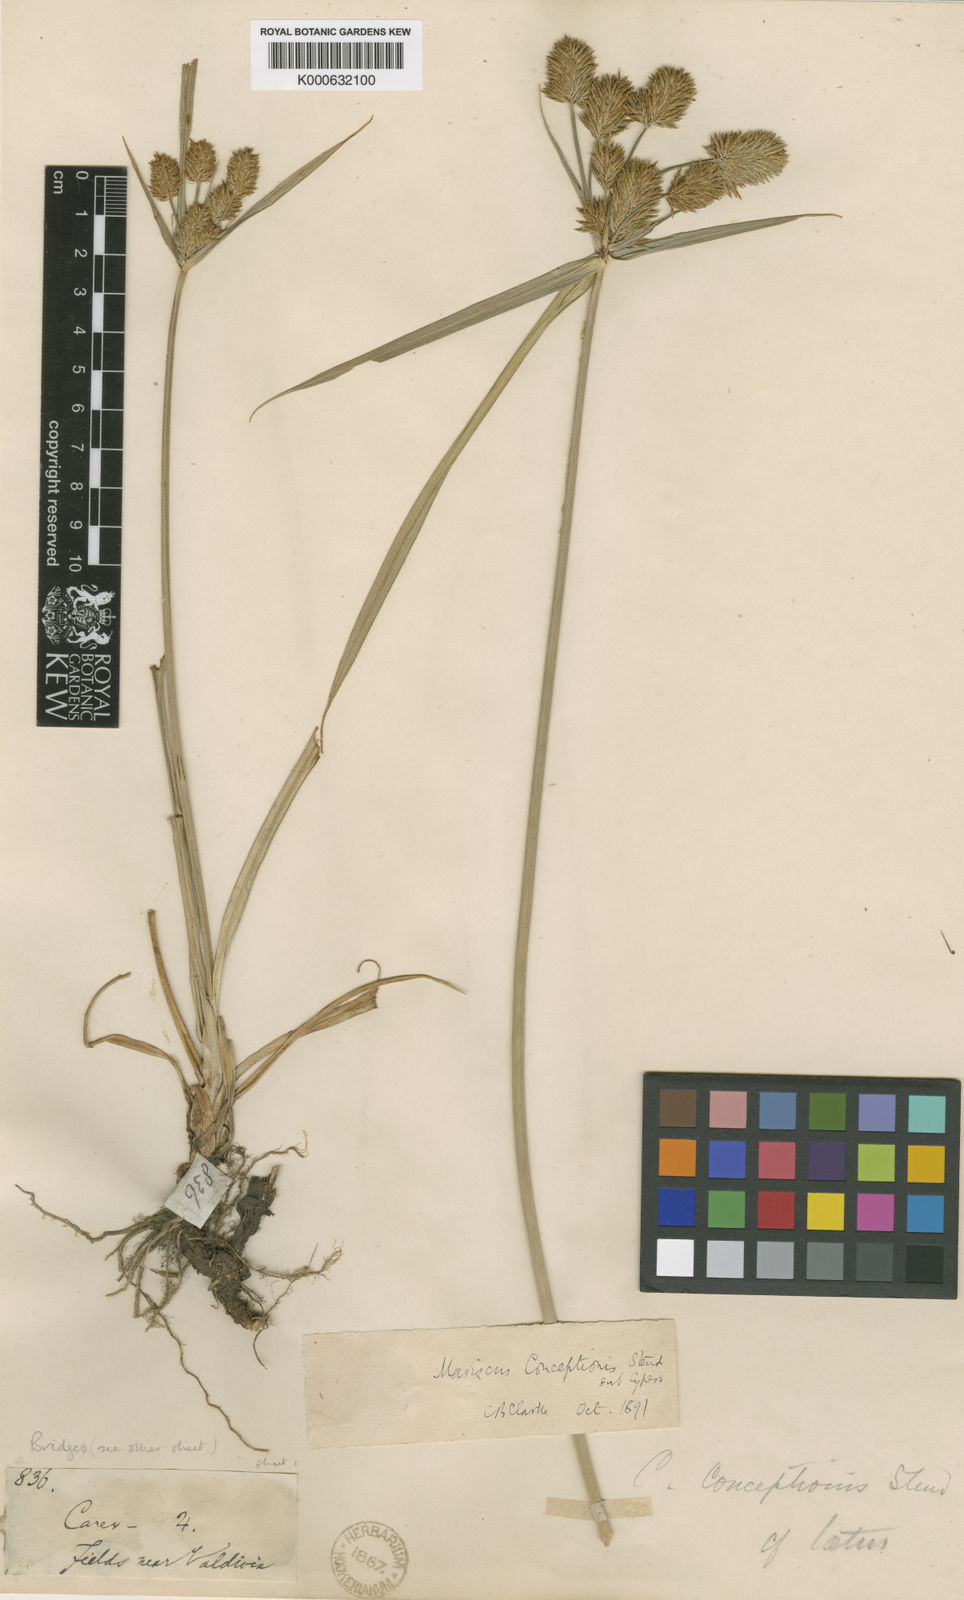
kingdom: Plantae
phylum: Tracheophyta
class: Liliopsida
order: Poales
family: Cyperaceae
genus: Cyperus
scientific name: Cyperus rigens
